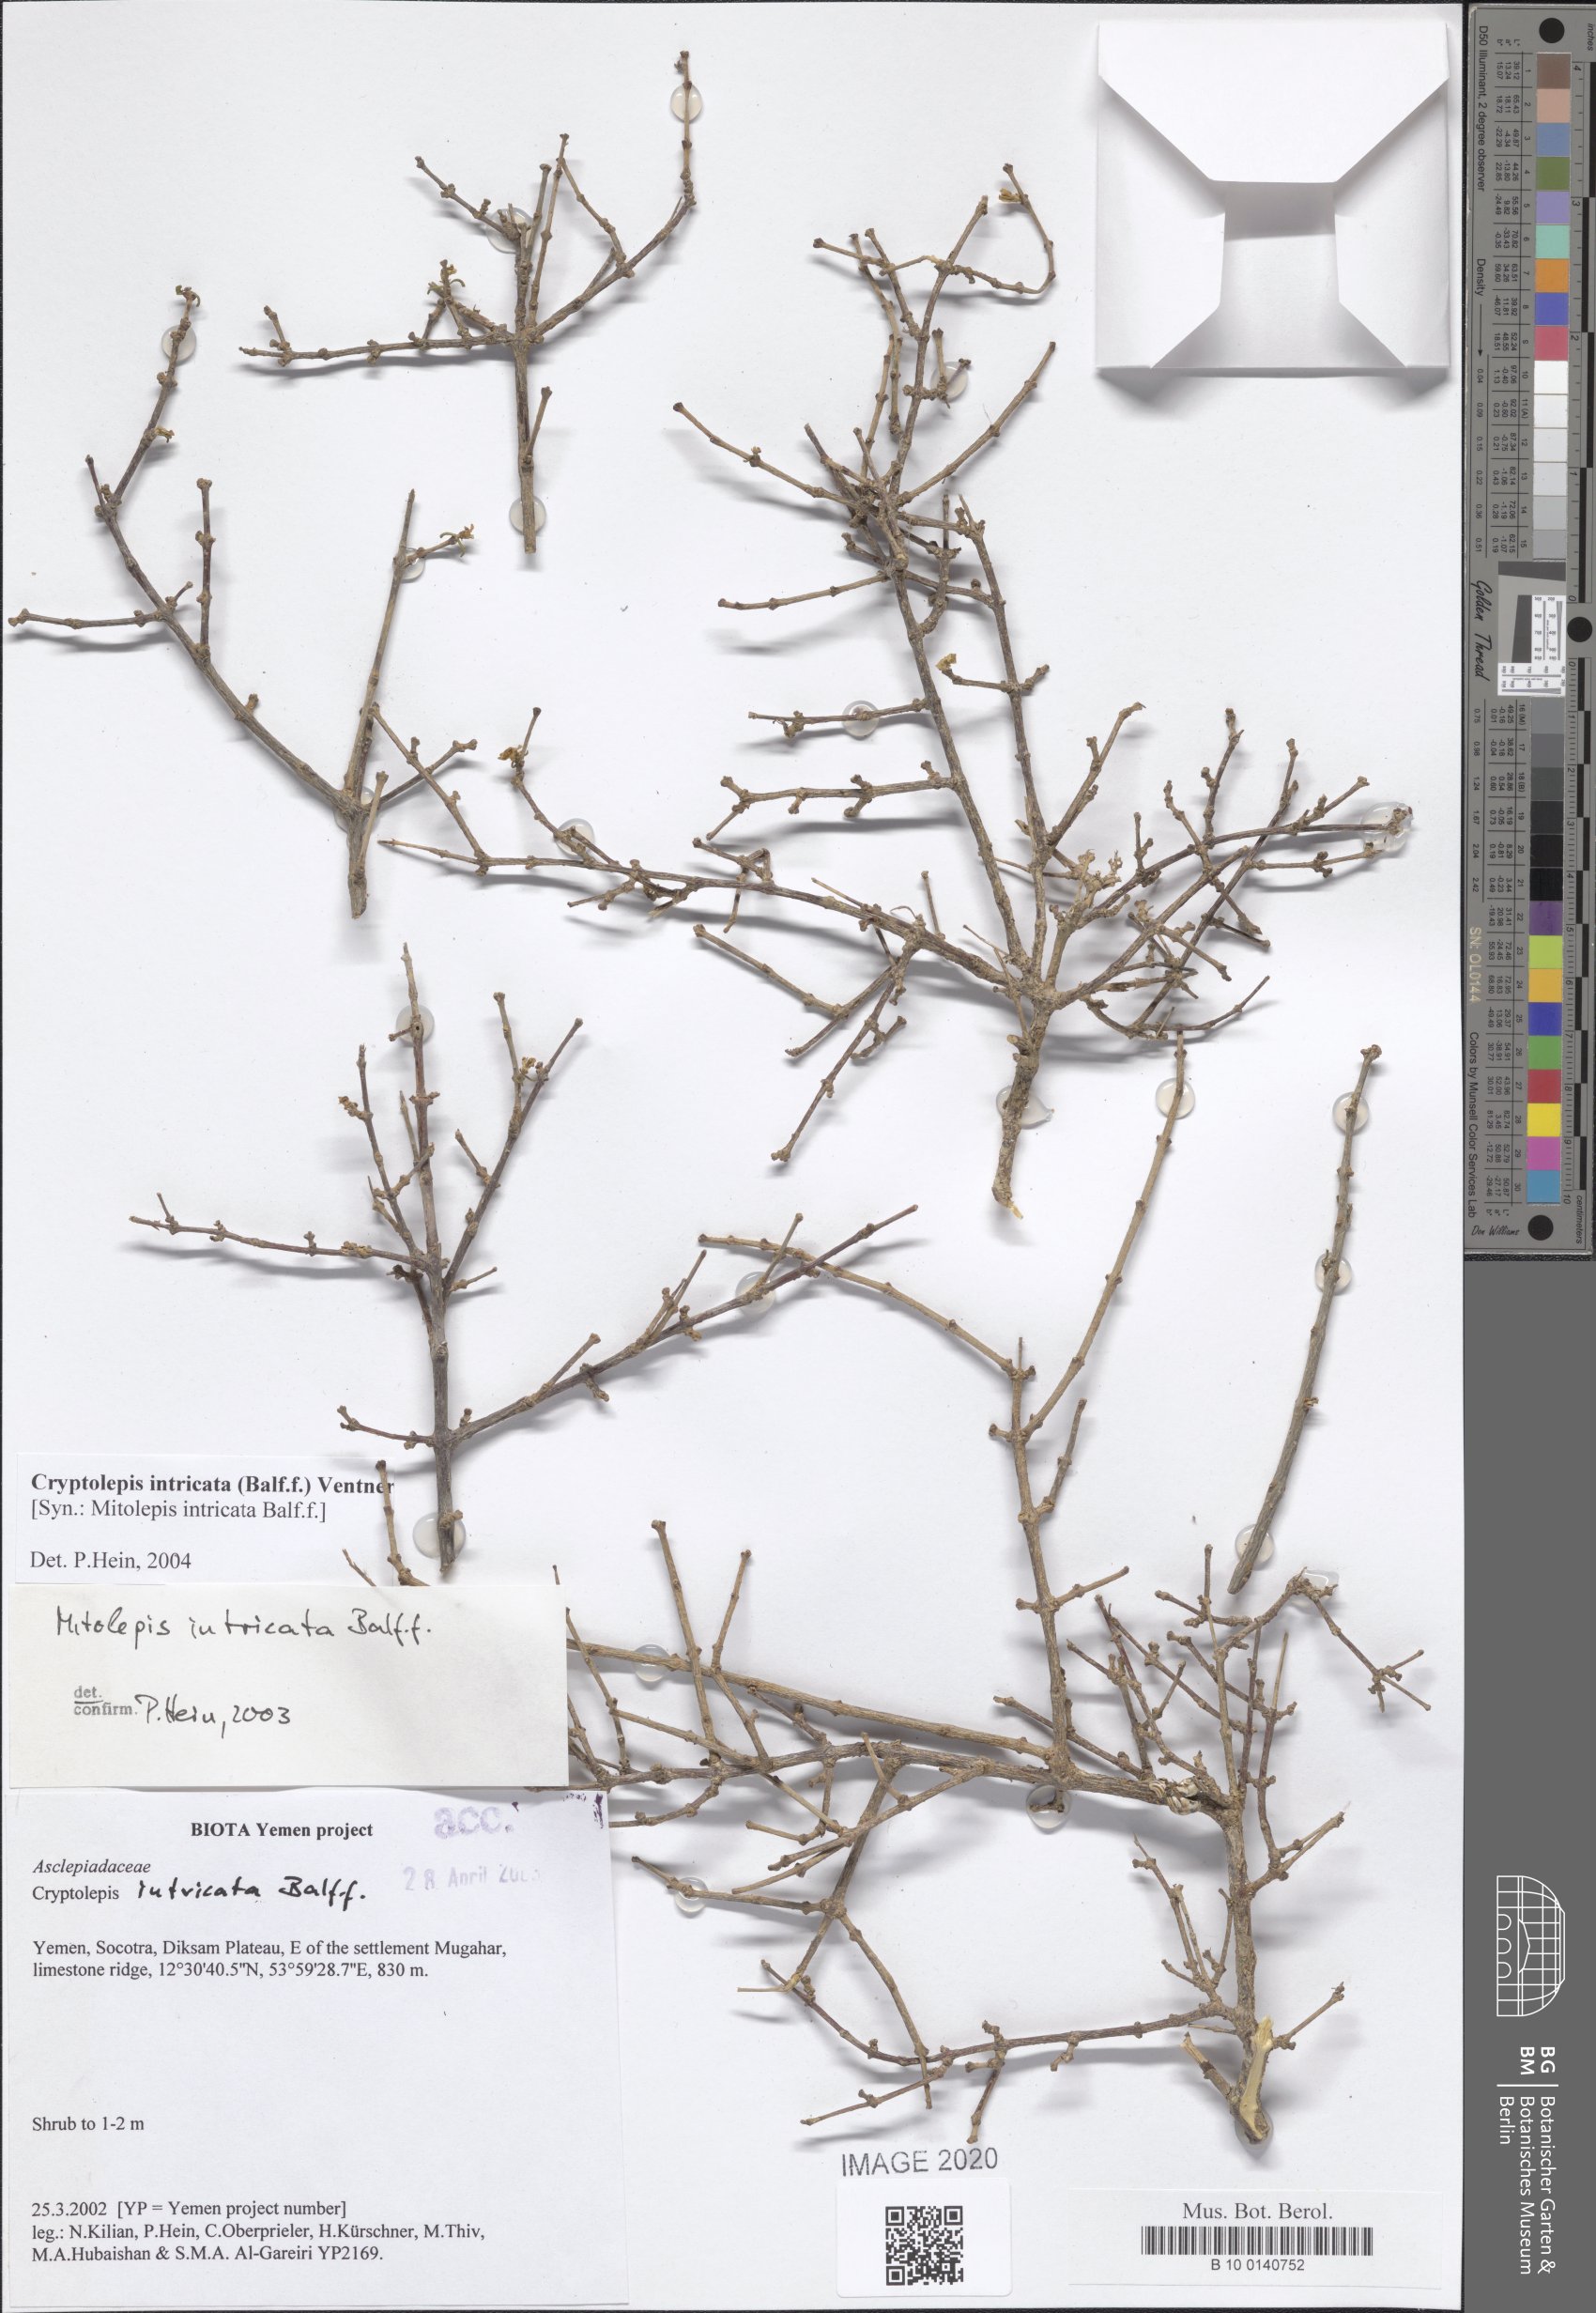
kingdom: Plantae
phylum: Tracheophyta
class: Magnoliopsida
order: Gentianales
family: Apocynaceae
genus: Cryptolepis
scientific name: Cryptolepis intricata
